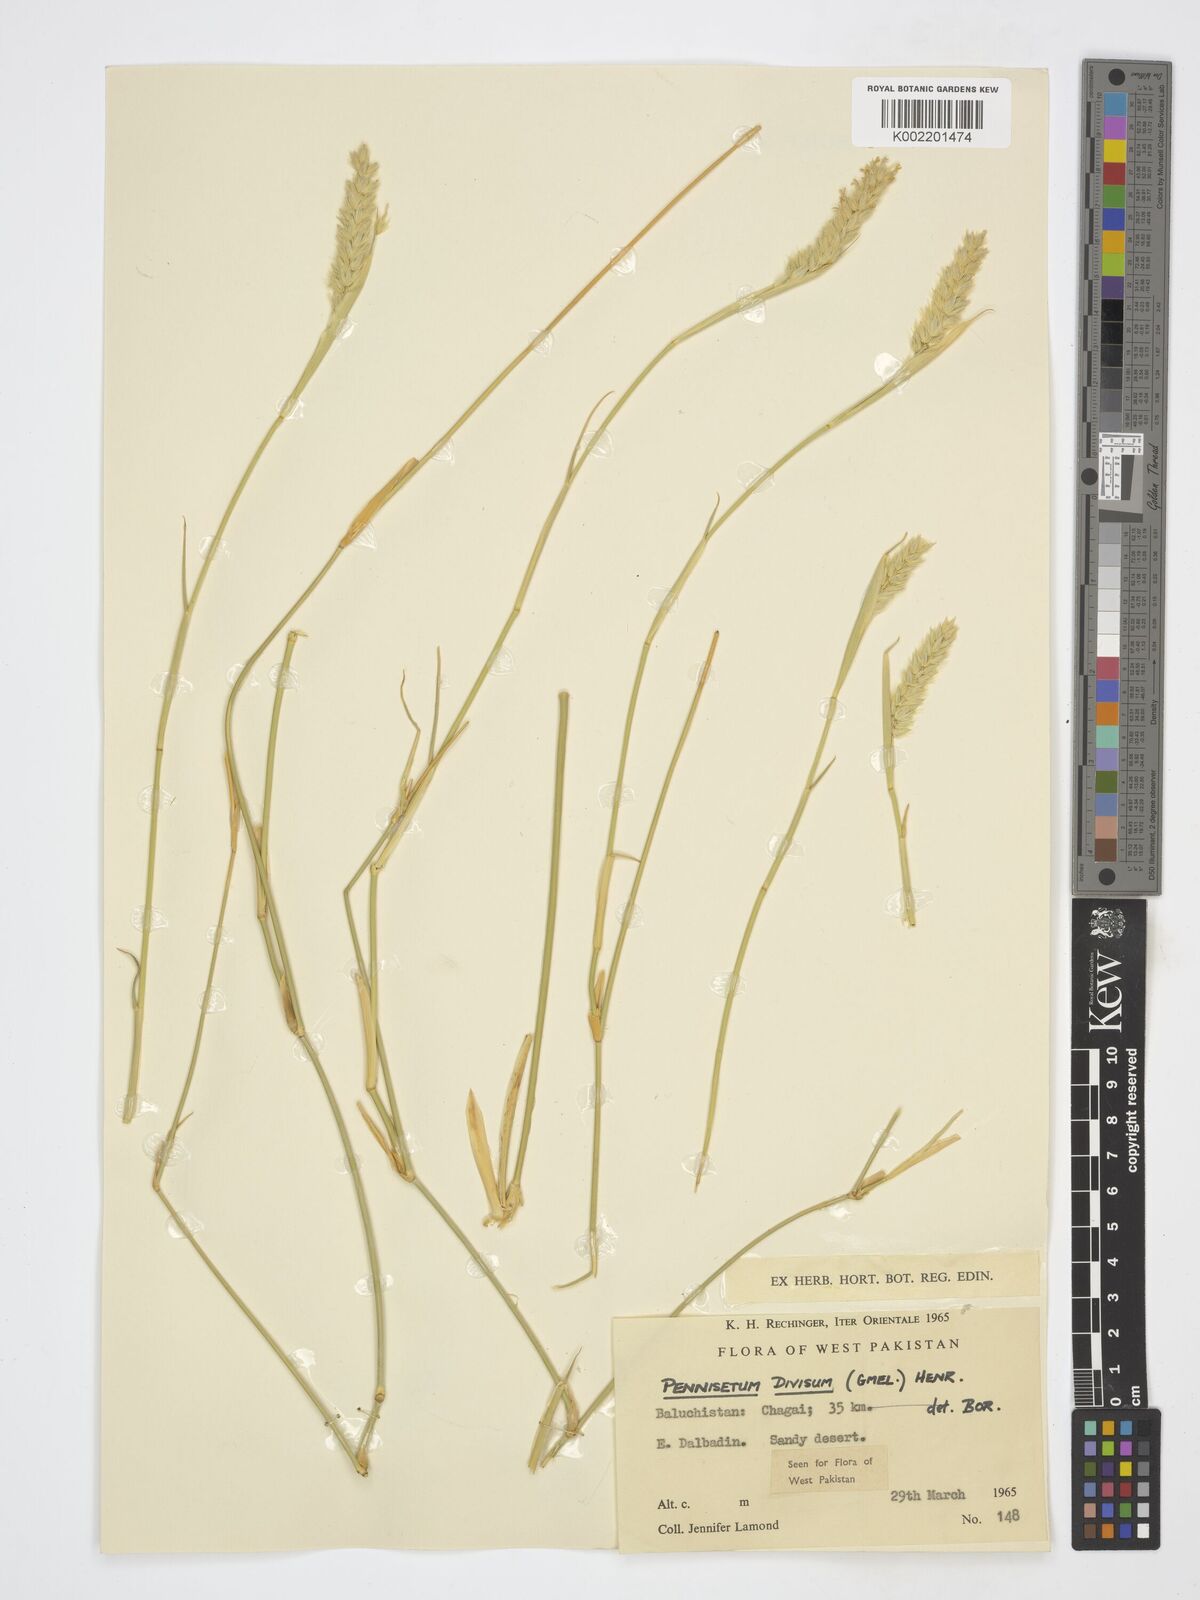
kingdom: Plantae
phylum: Tracheophyta
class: Liliopsida
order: Poales
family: Poaceae
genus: Cenchrus
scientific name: Cenchrus divisus
